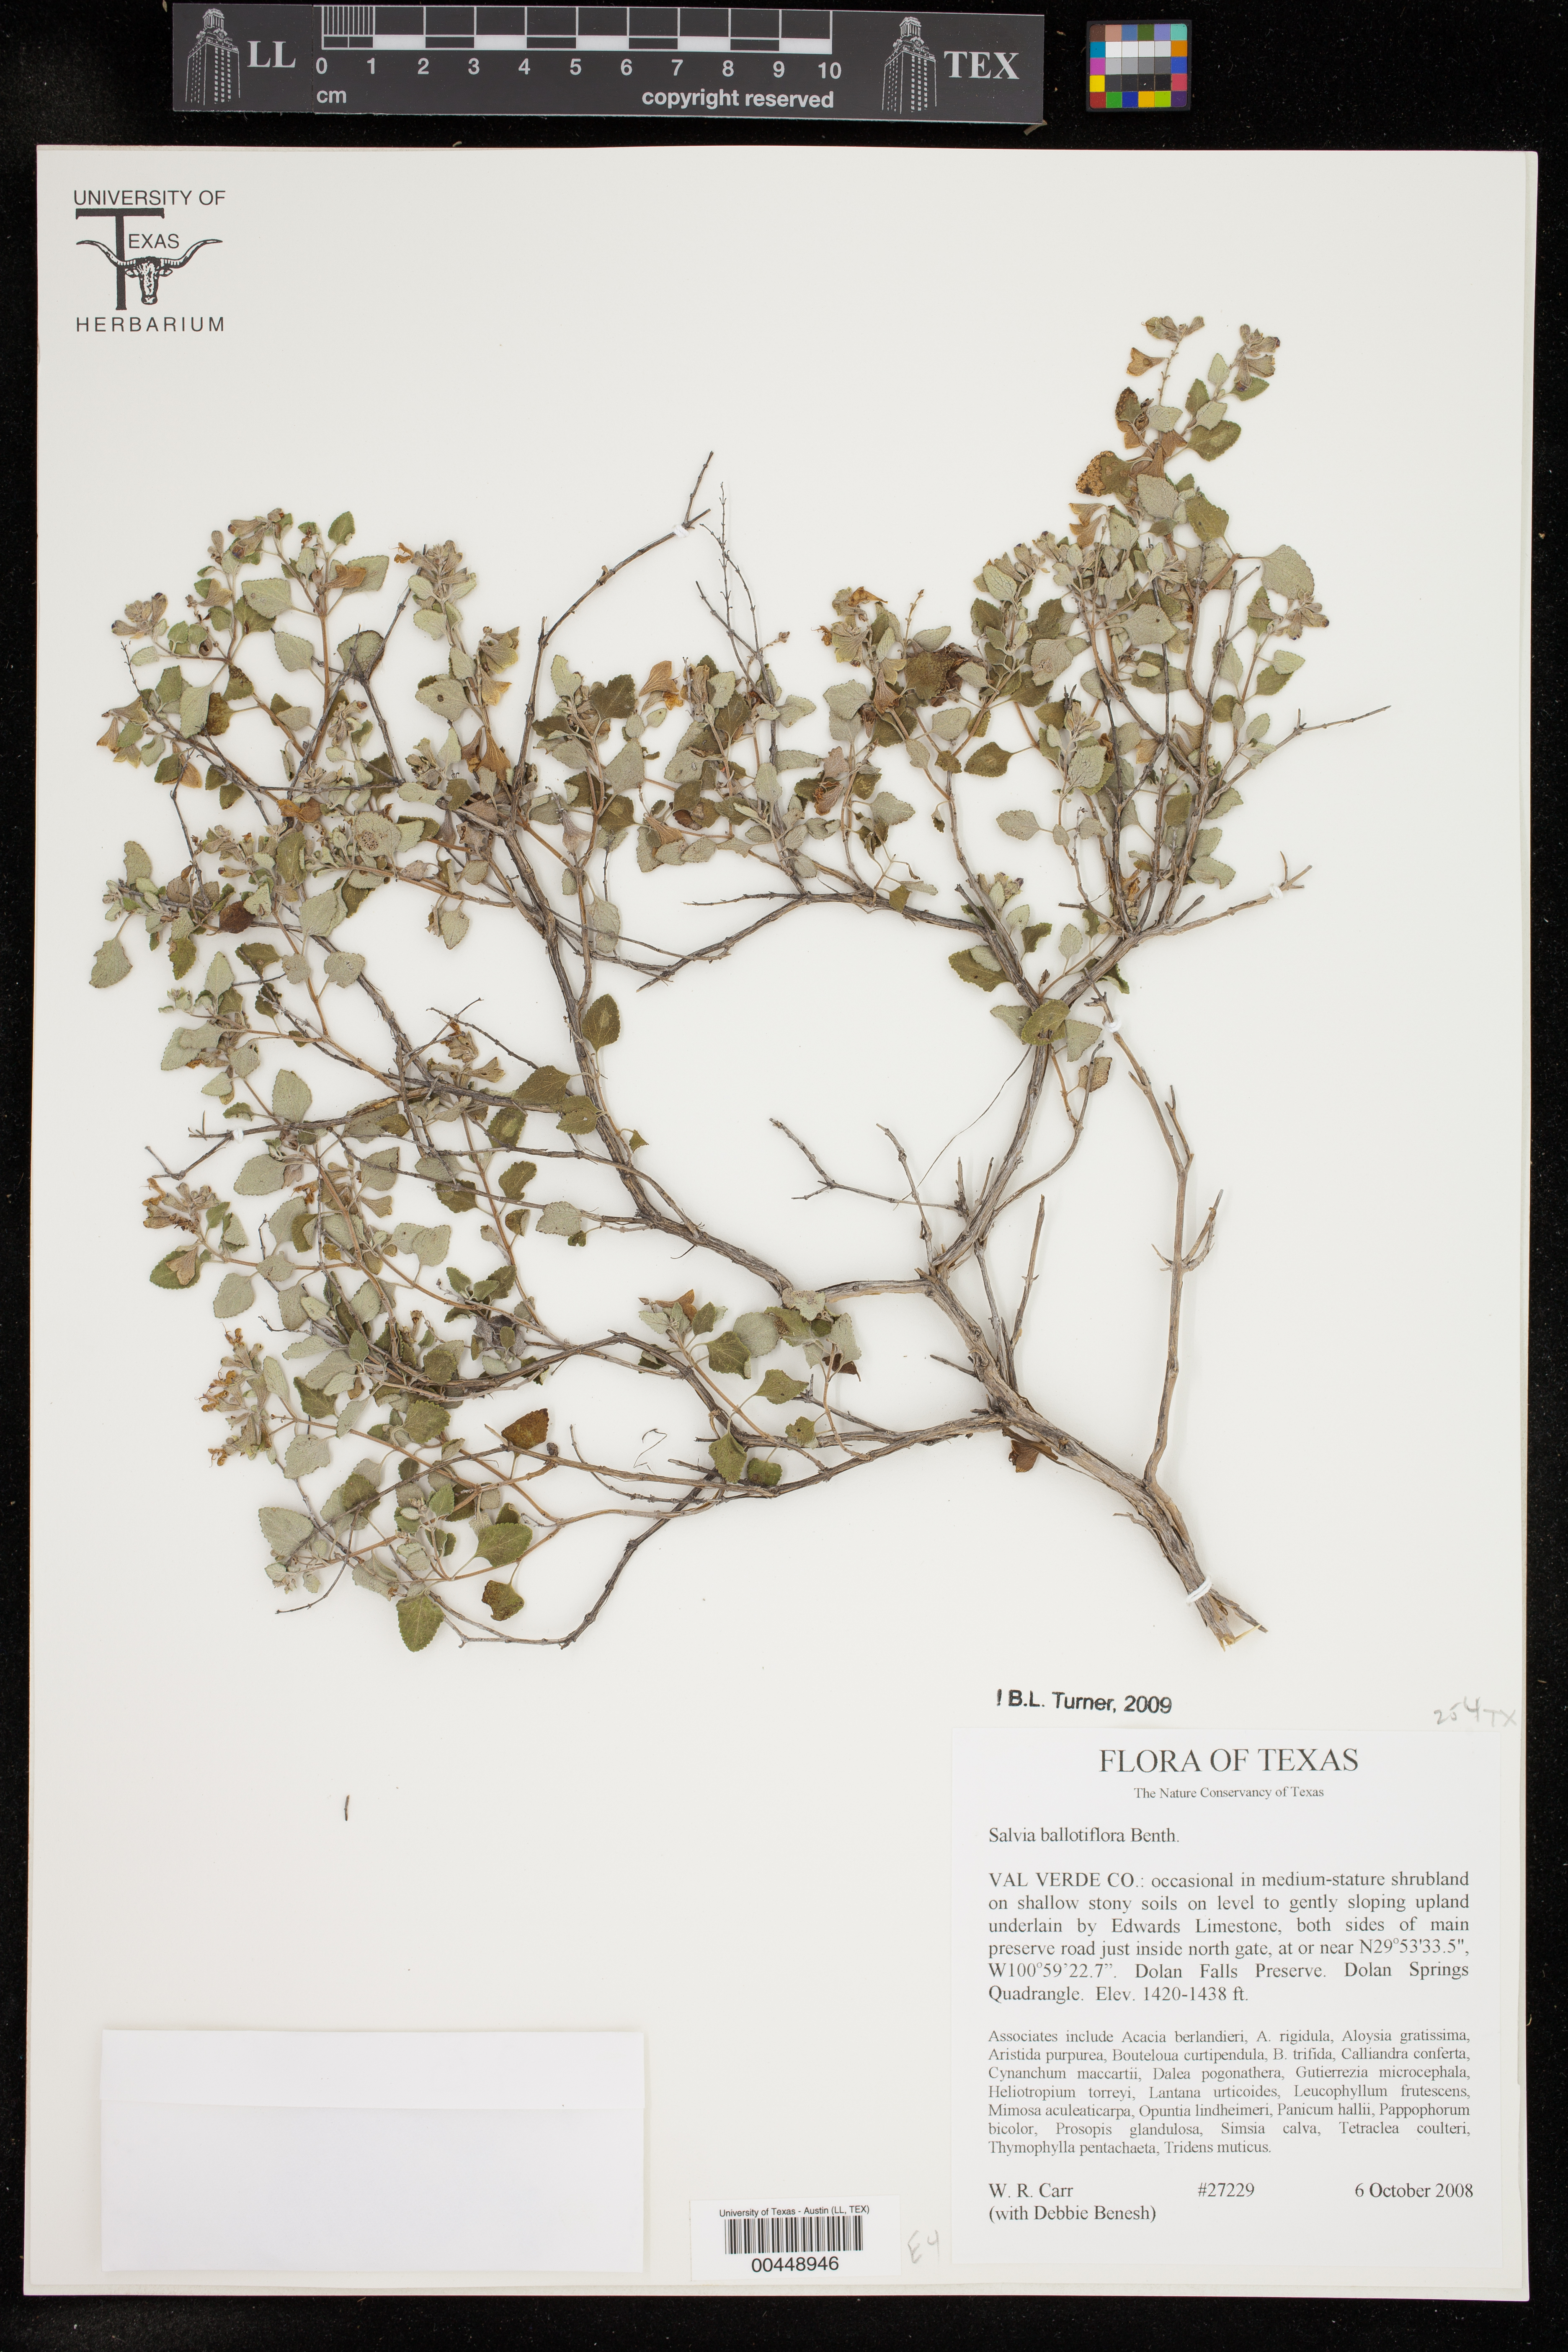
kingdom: Plantae
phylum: Tracheophyta
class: Magnoliopsida
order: Lamiales
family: Lamiaceae
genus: Salvia
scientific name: Salvia ballotiflora
